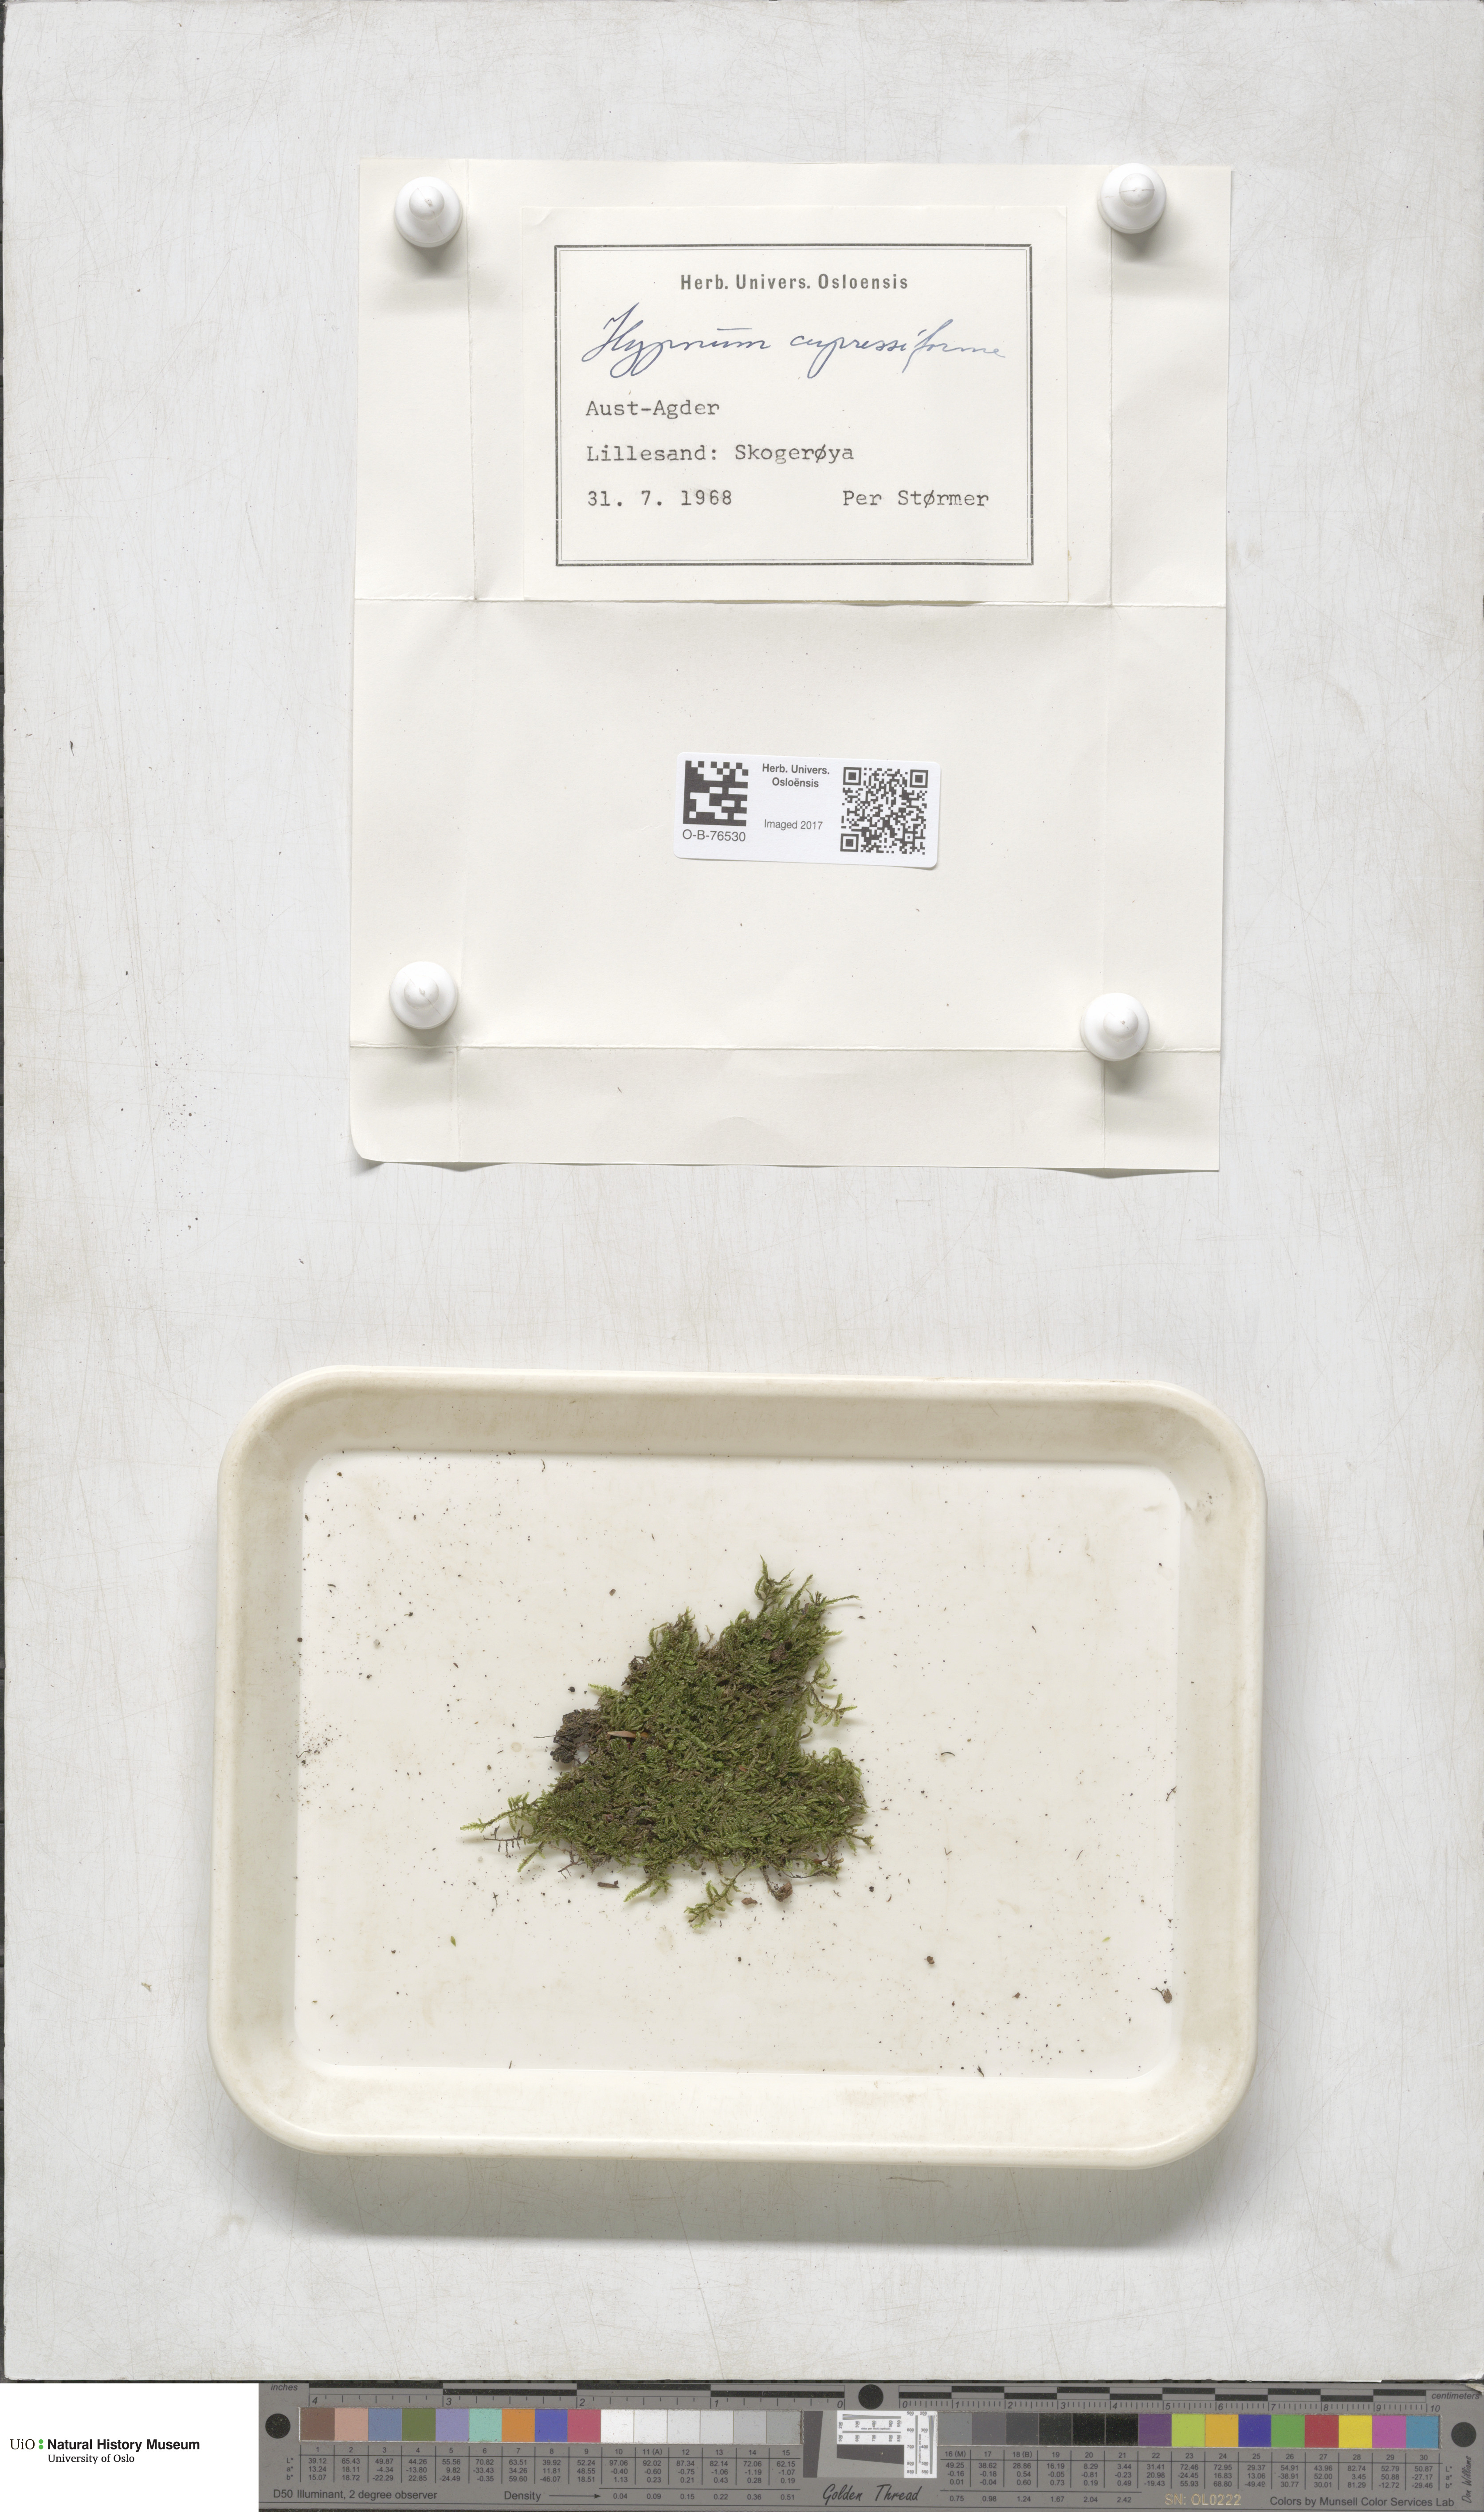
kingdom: Plantae
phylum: Bryophyta
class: Bryopsida
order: Hypnales
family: Hypnaceae
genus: Hypnum
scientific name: Hypnum cupressiforme
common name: Cypress-leaved plait-moss
